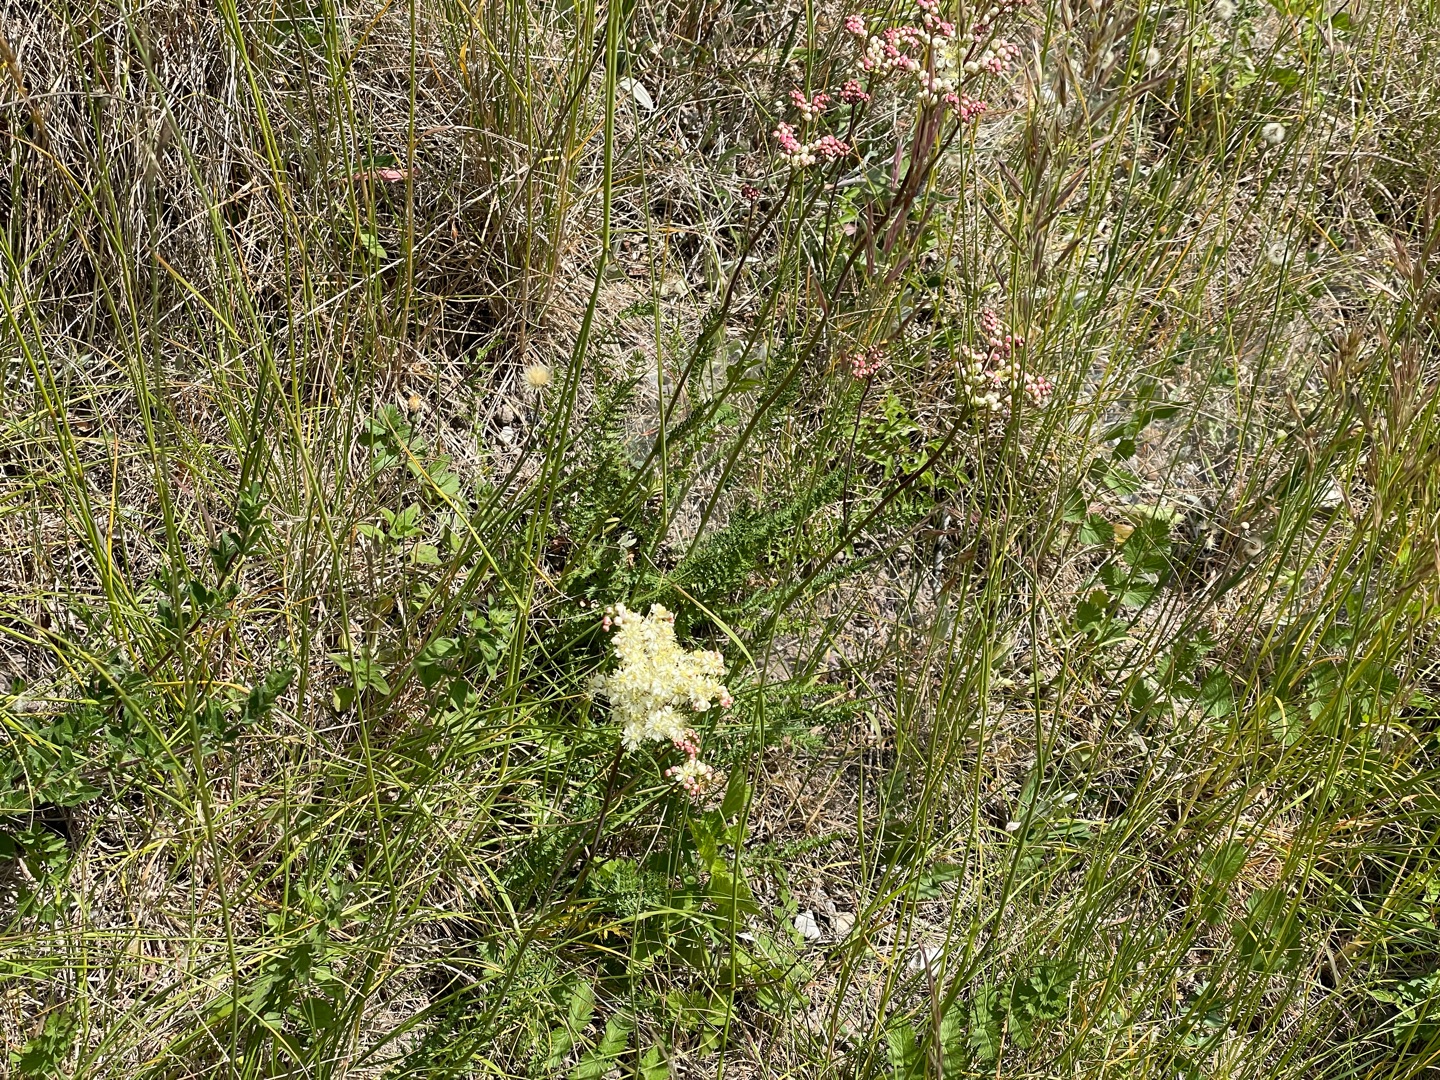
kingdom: Plantae
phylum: Tracheophyta
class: Magnoliopsida
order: Rosales
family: Rosaceae
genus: Filipendula
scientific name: Filipendula vulgaris
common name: Knoldet mjødurt
